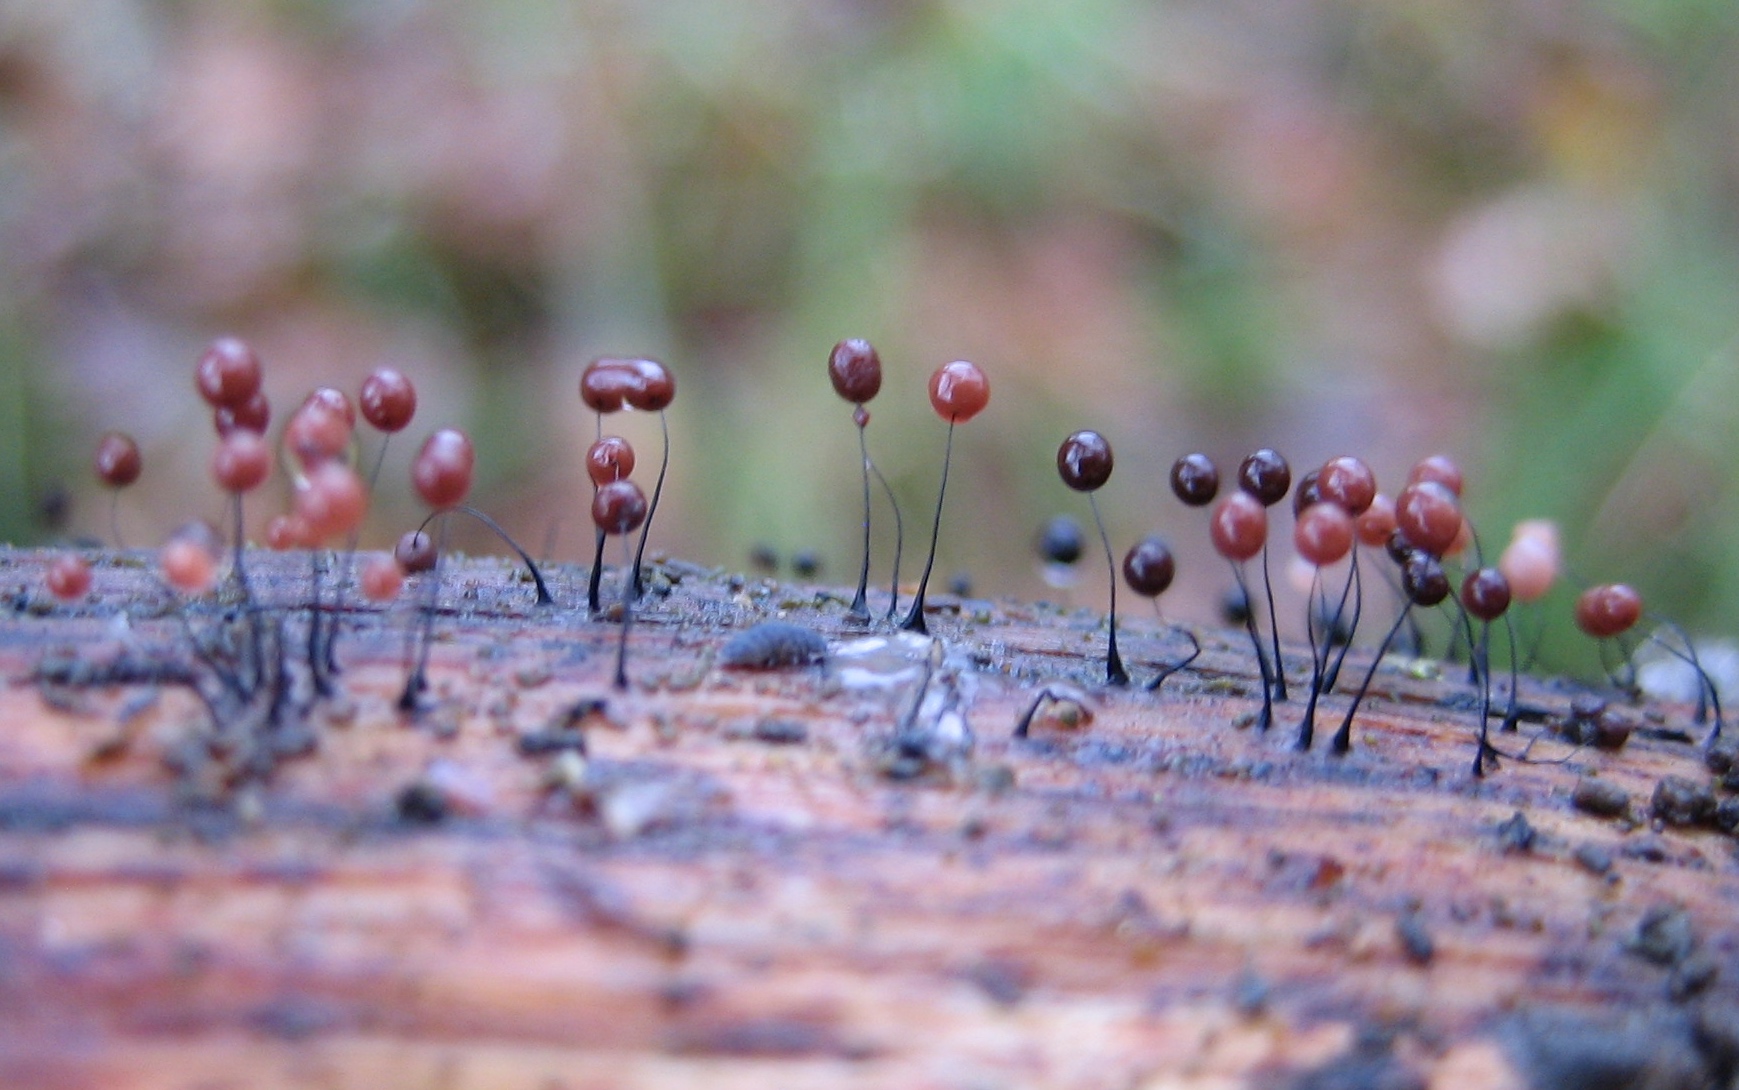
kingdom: Protozoa
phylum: Mycetozoa
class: Myxomycetes
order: Stemonitidales
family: Stemonitidaceae
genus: Comatricha
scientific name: Comatricha
